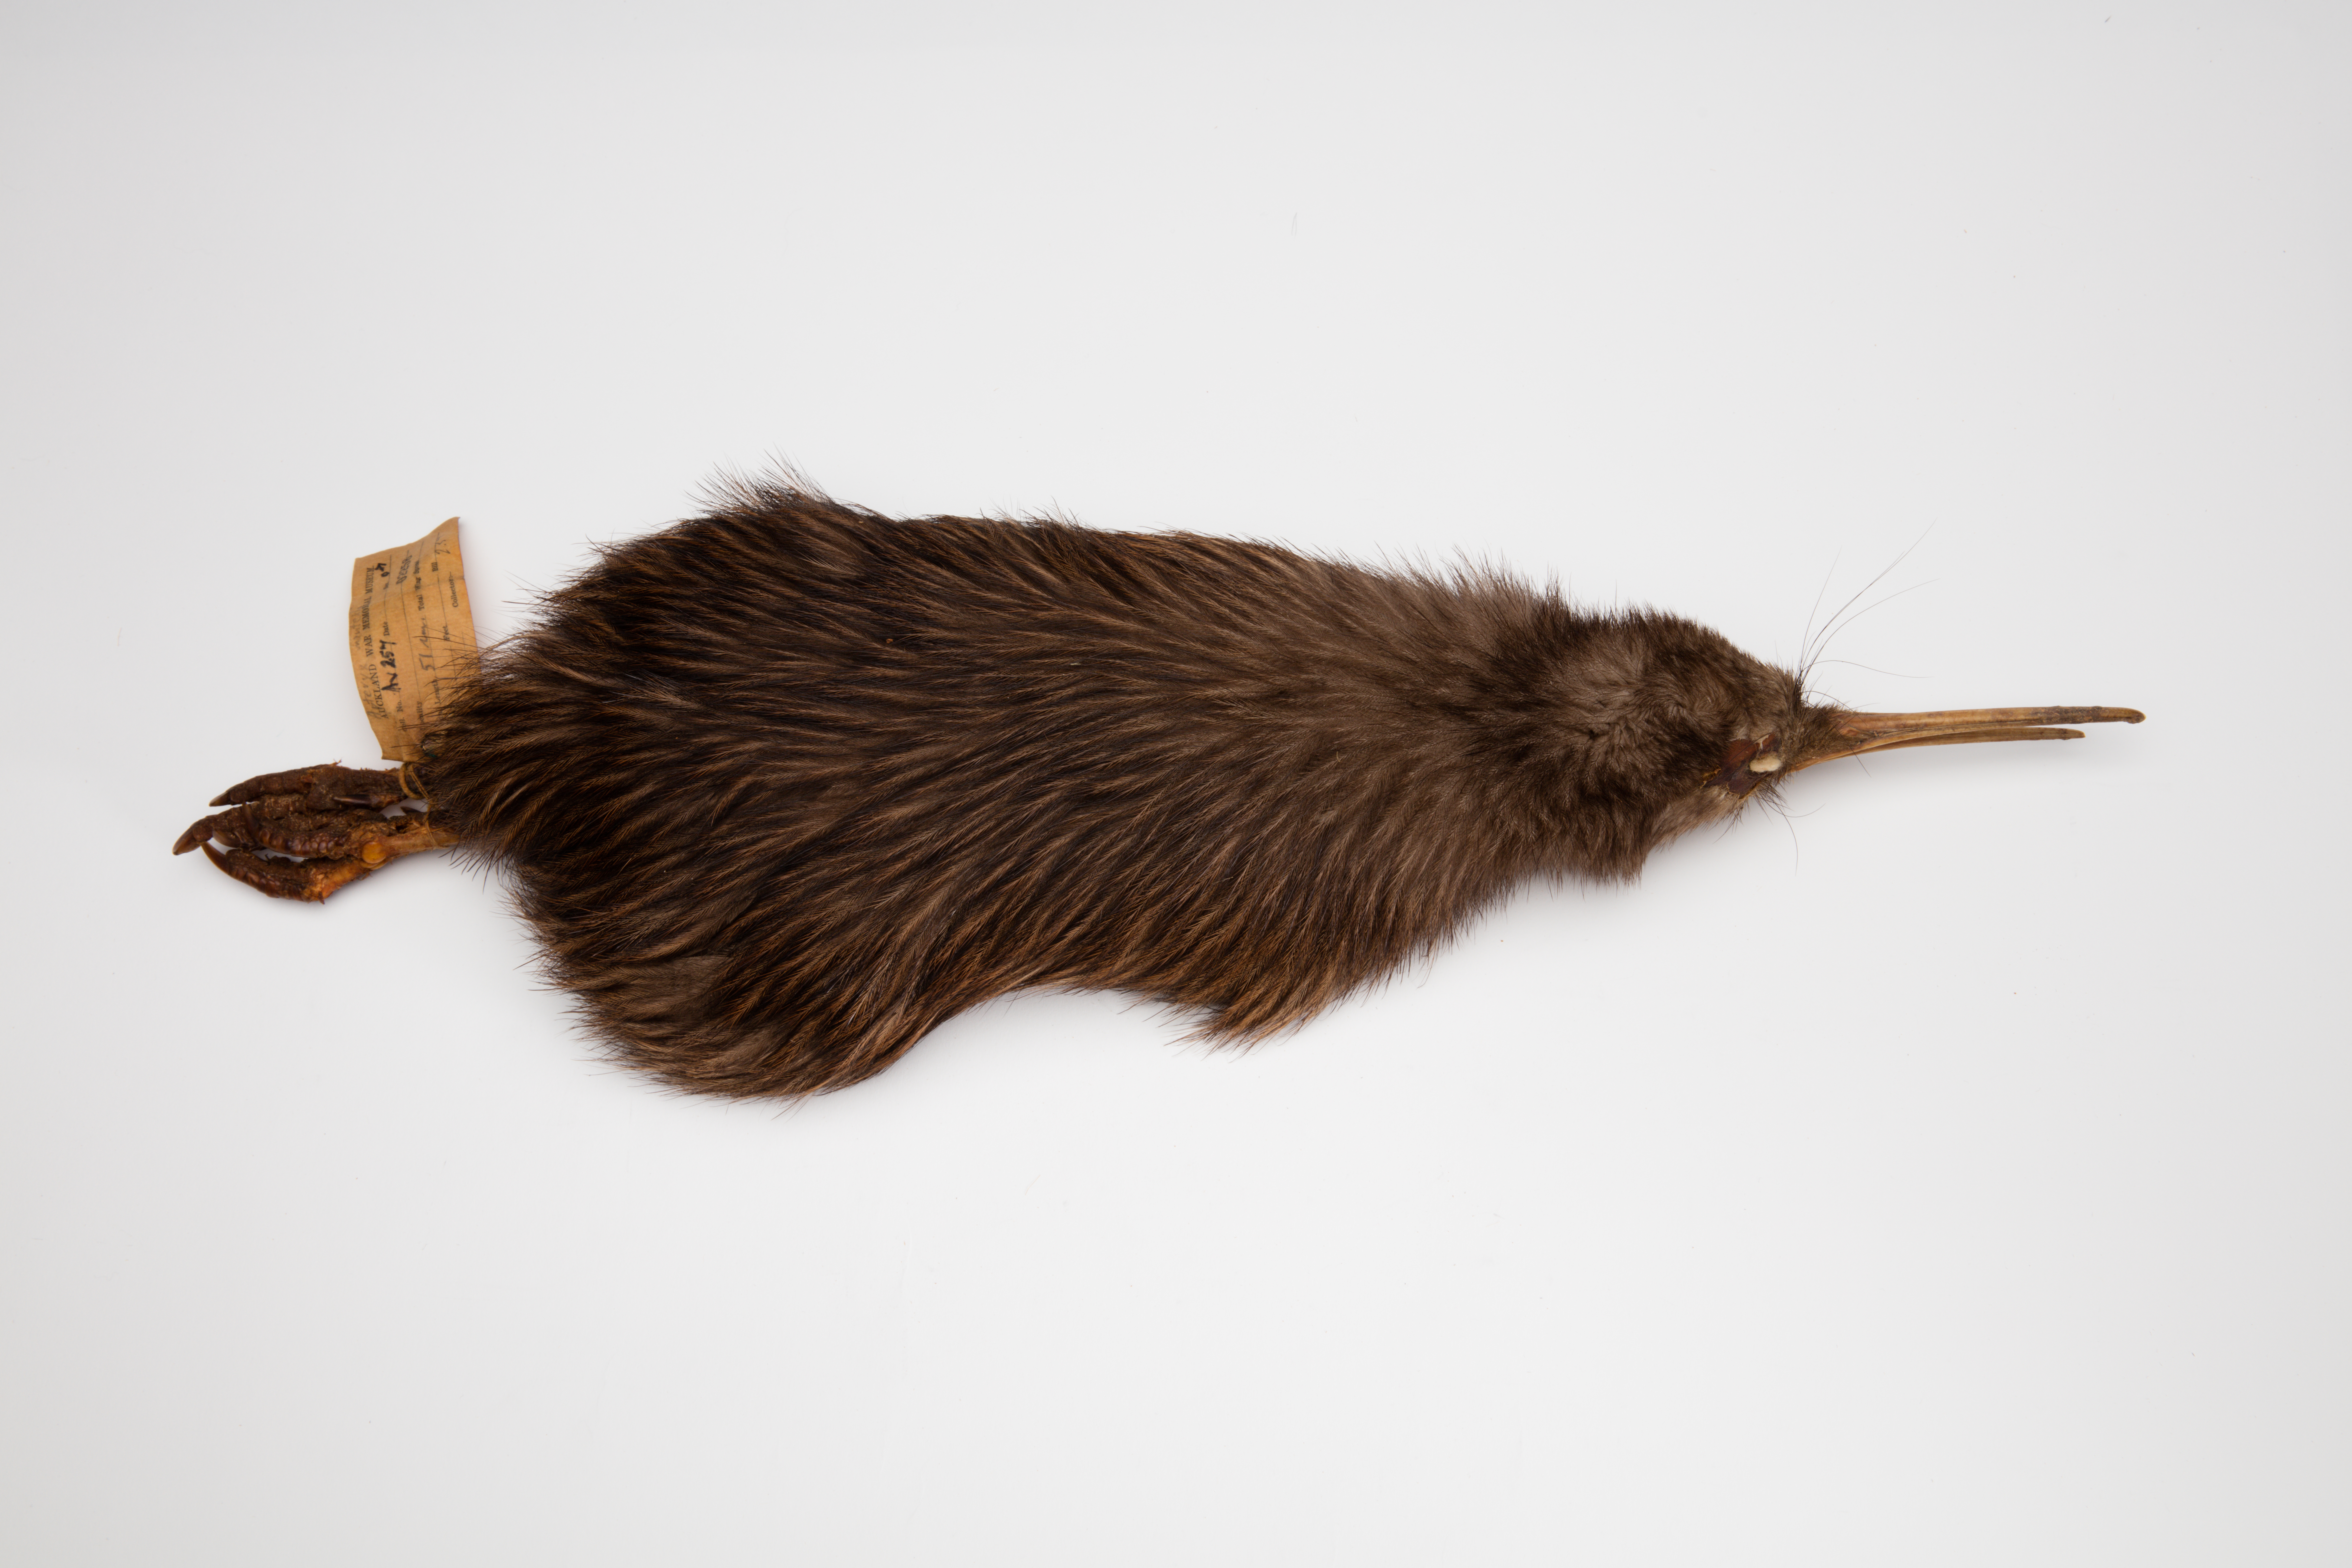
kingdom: Animalia
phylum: Chordata
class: Aves
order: Apterygiformes
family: Apterygidae
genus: Apteryx
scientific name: Apteryx mantelli
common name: North island brown kiwi
